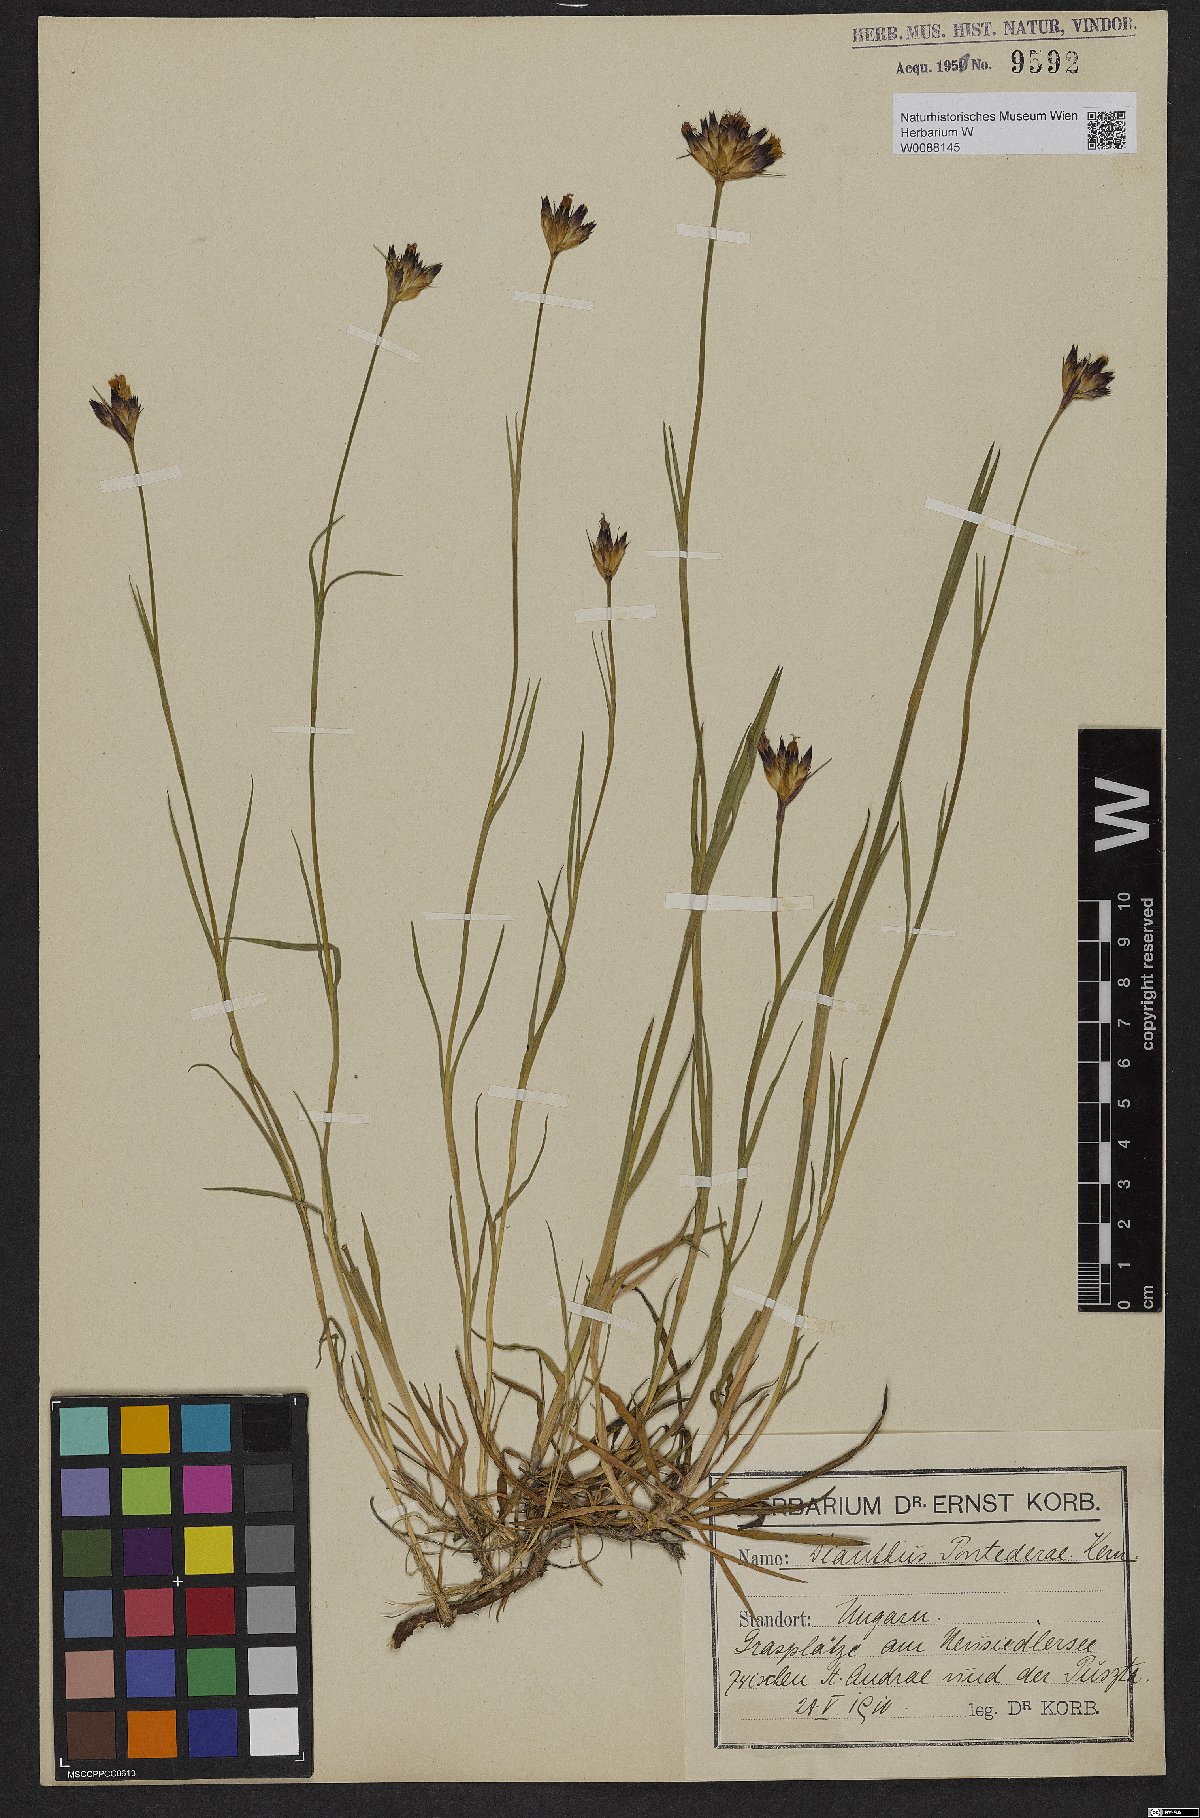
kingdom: Plantae
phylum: Tracheophyta
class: Magnoliopsida
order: Caryophyllales
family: Caryophyllaceae
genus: Dianthus
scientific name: Dianthus pontederae
